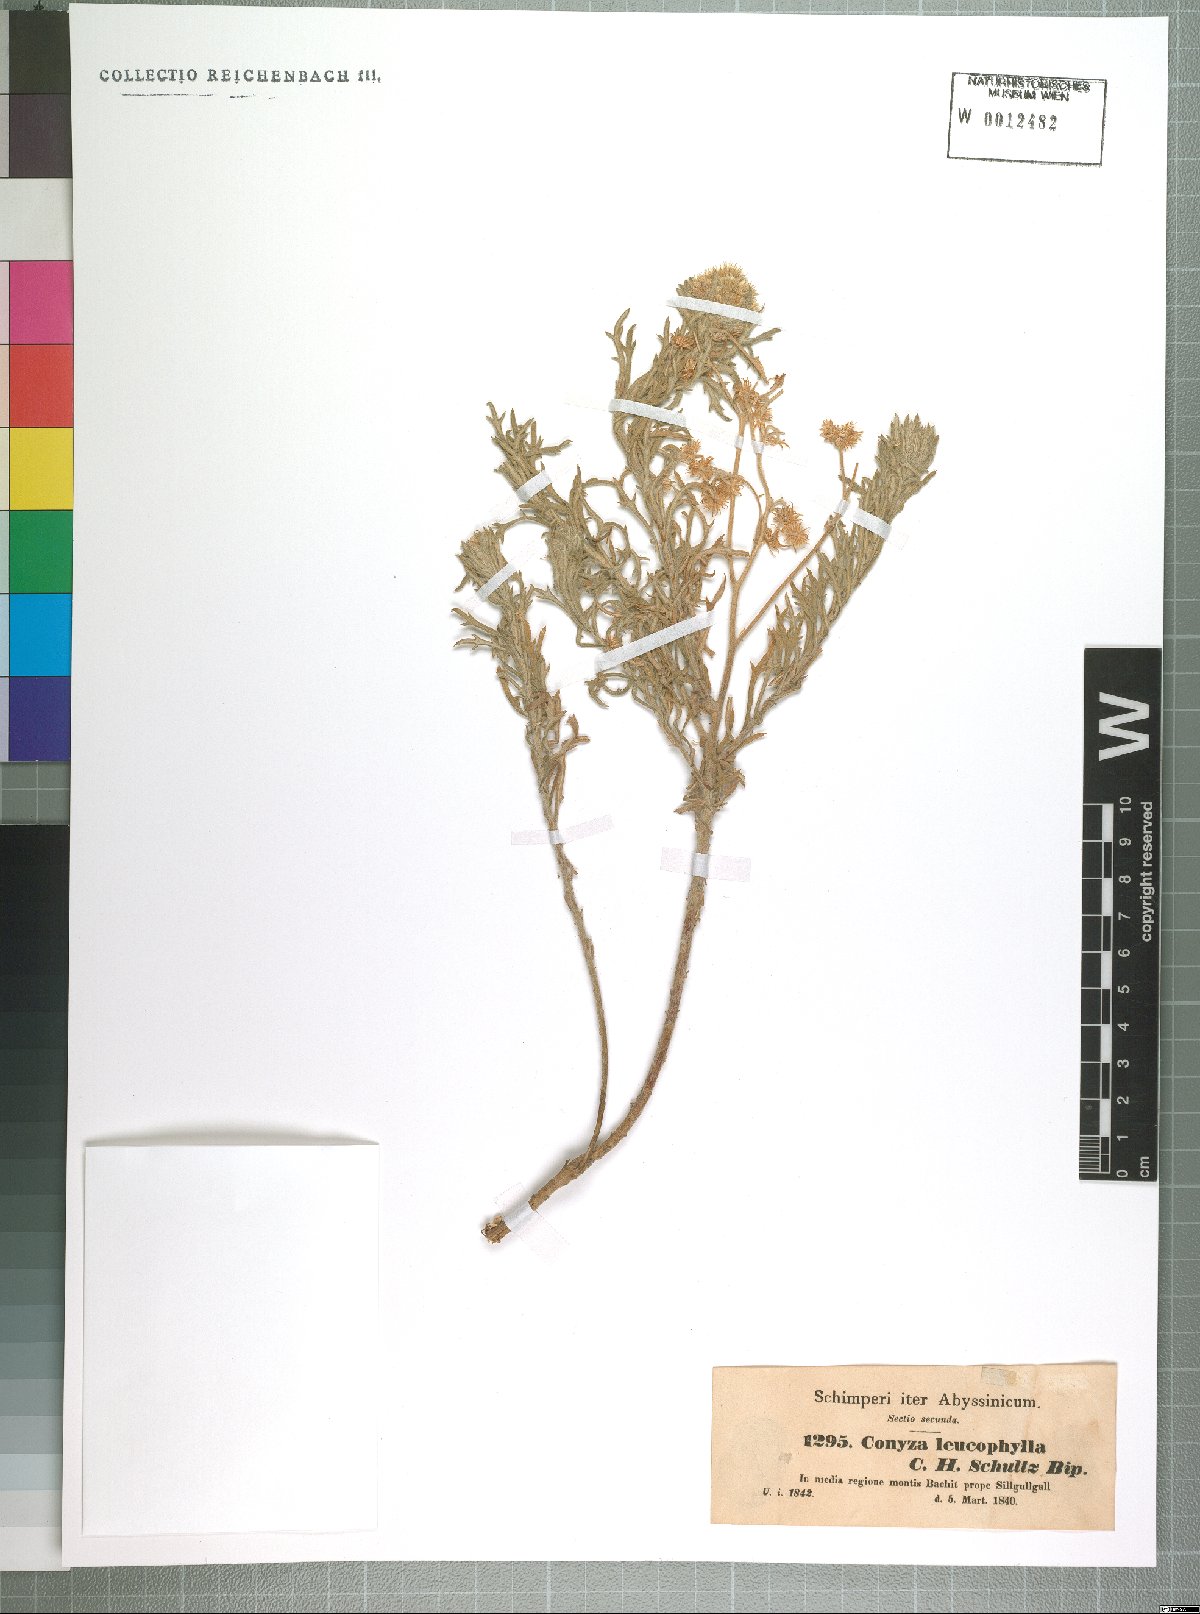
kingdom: Plantae
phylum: Tracheophyta
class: Magnoliopsida
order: Asterales
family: Asteraceae
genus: Conyza
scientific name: Conyza incana
